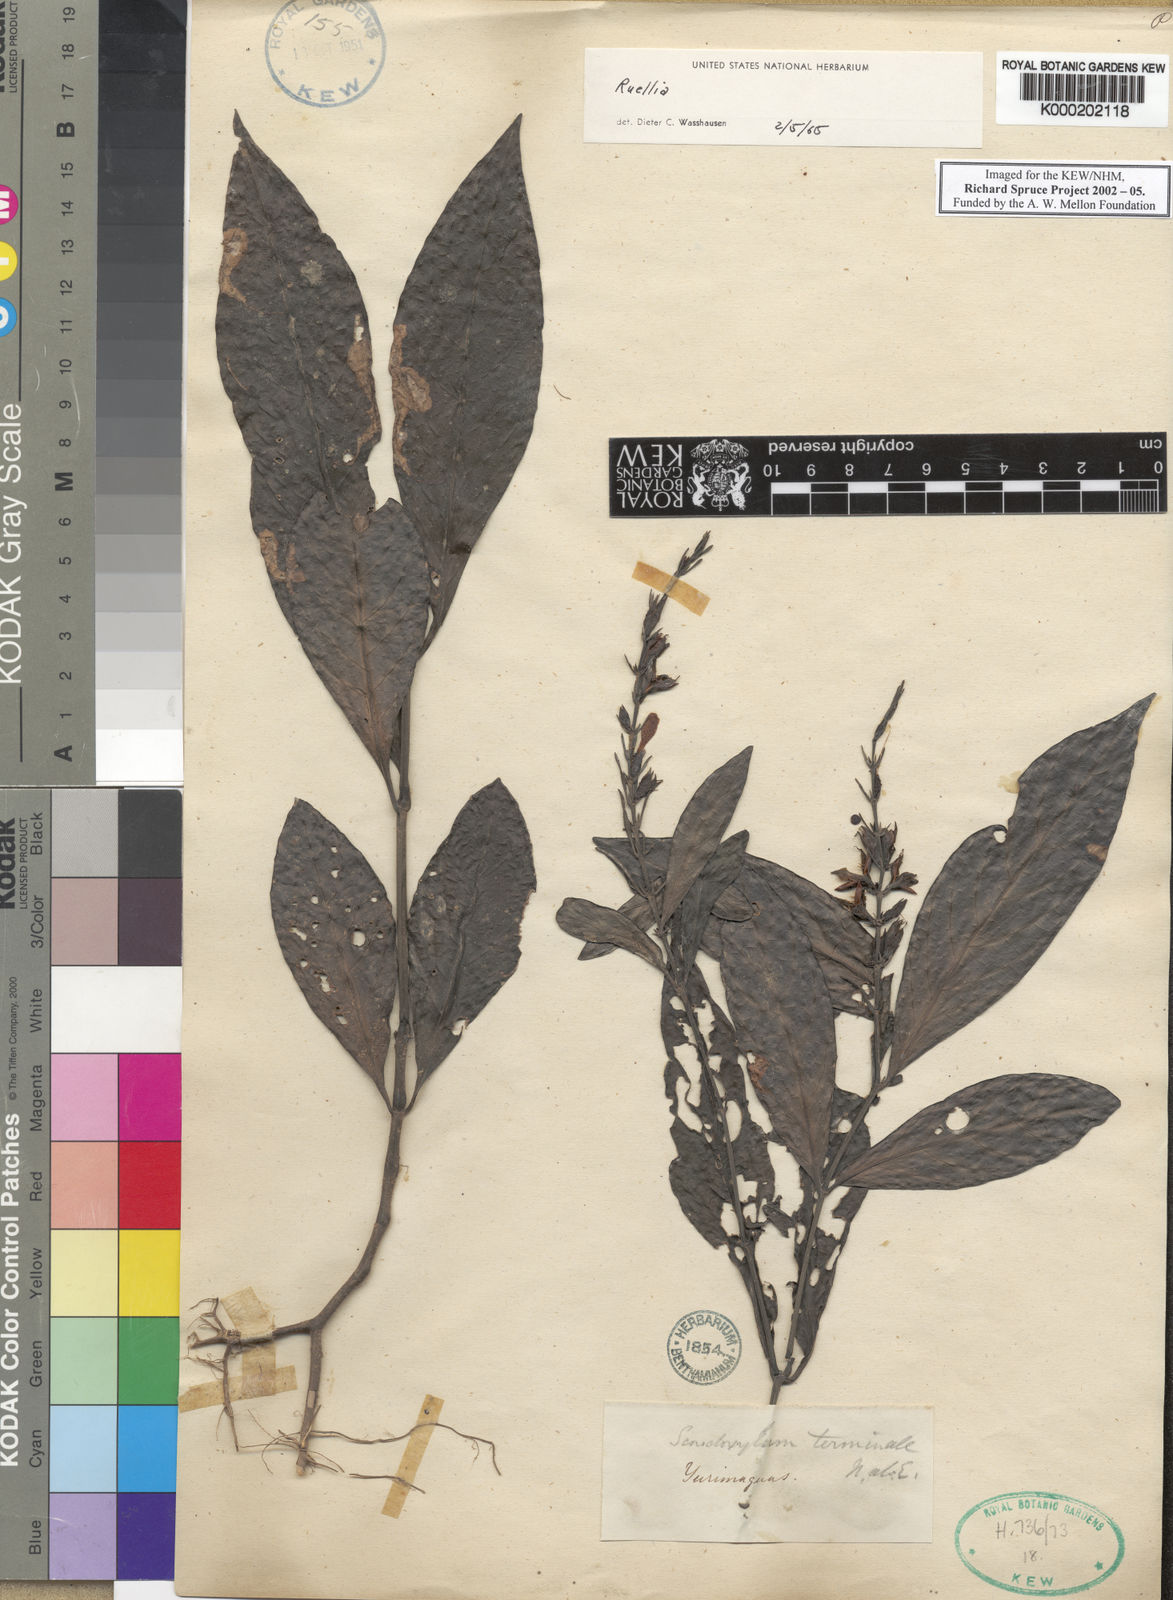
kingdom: Plantae
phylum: Tracheophyta
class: Magnoliopsida
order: Lamiales
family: Acanthaceae
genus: Ruellia
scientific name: Ruellia
